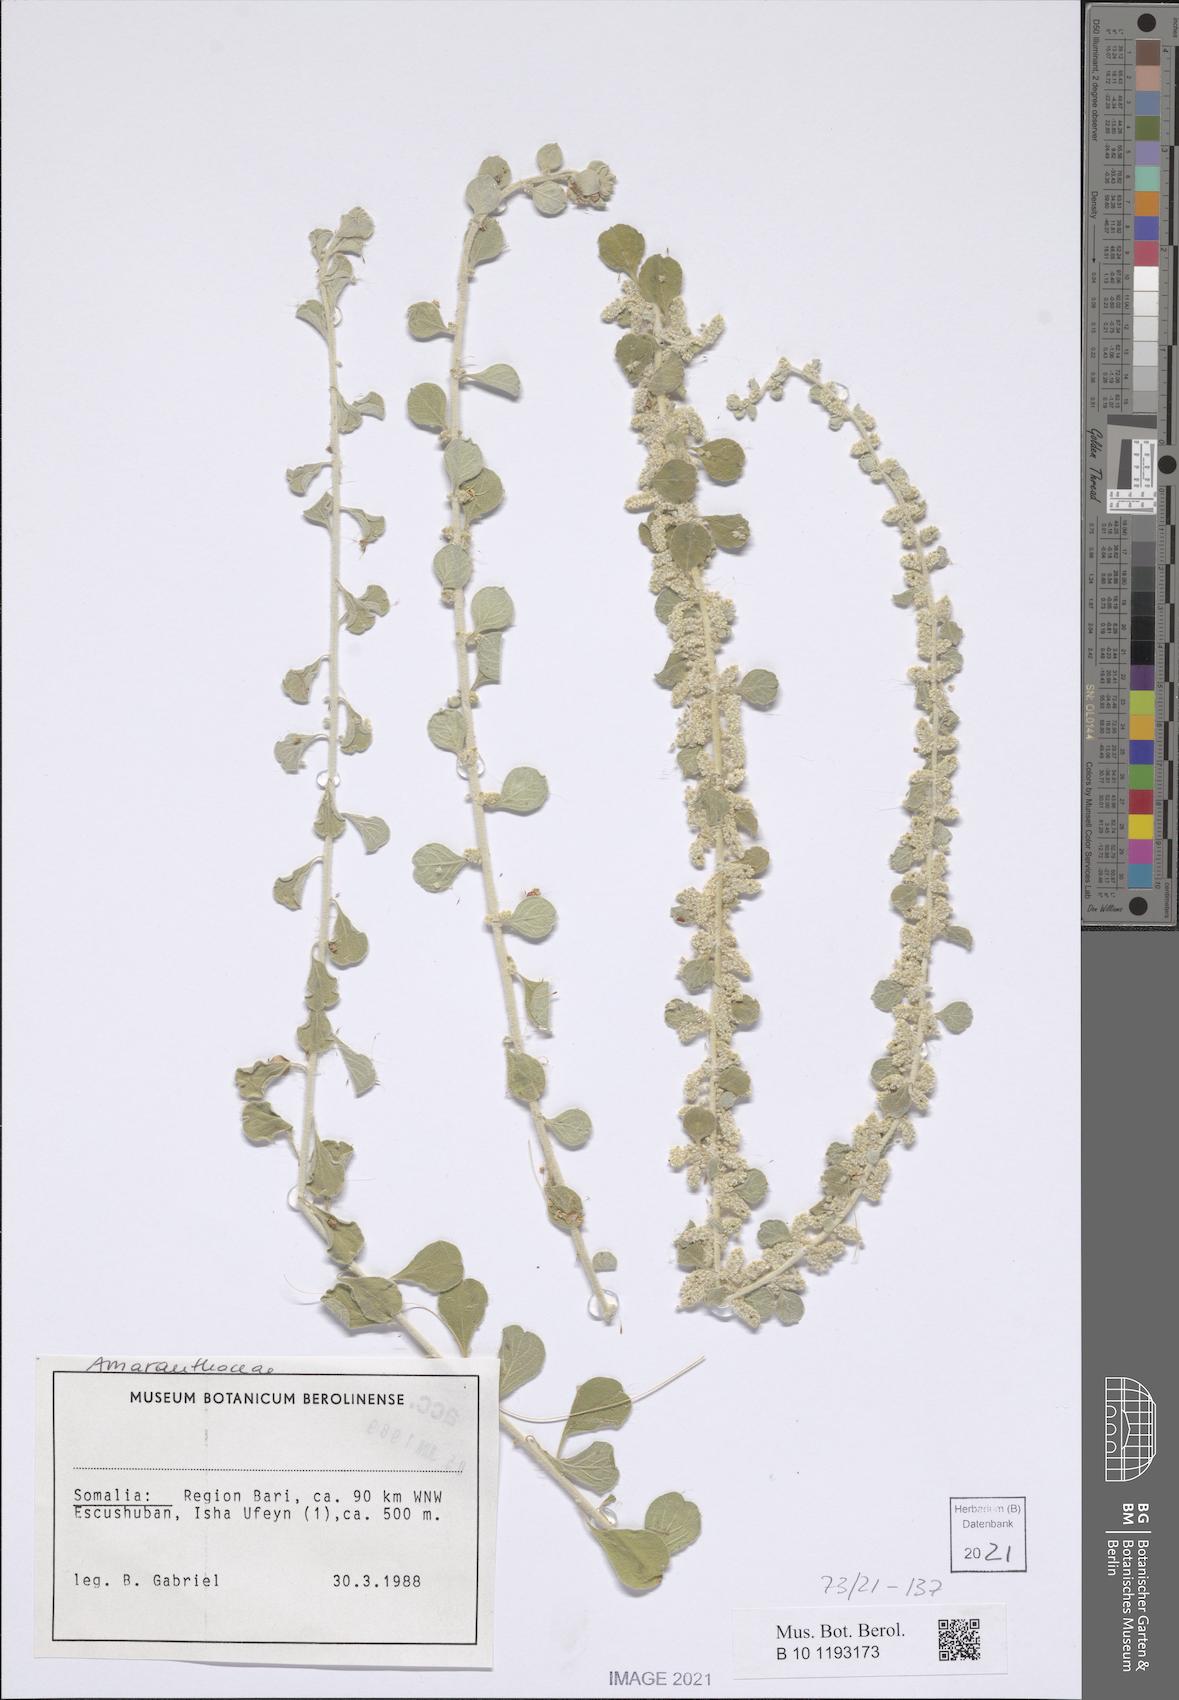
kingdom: Plantae
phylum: Tracheophyta
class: Magnoliopsida
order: Caryophyllales
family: Amaranthaceae
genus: Ouret
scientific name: Ouret lanata
